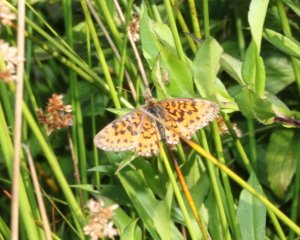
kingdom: Animalia
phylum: Arthropoda
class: Insecta
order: Lepidoptera
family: Nymphalidae
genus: Boloria
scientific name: Boloria selene
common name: Silver-bordered Fritillary
